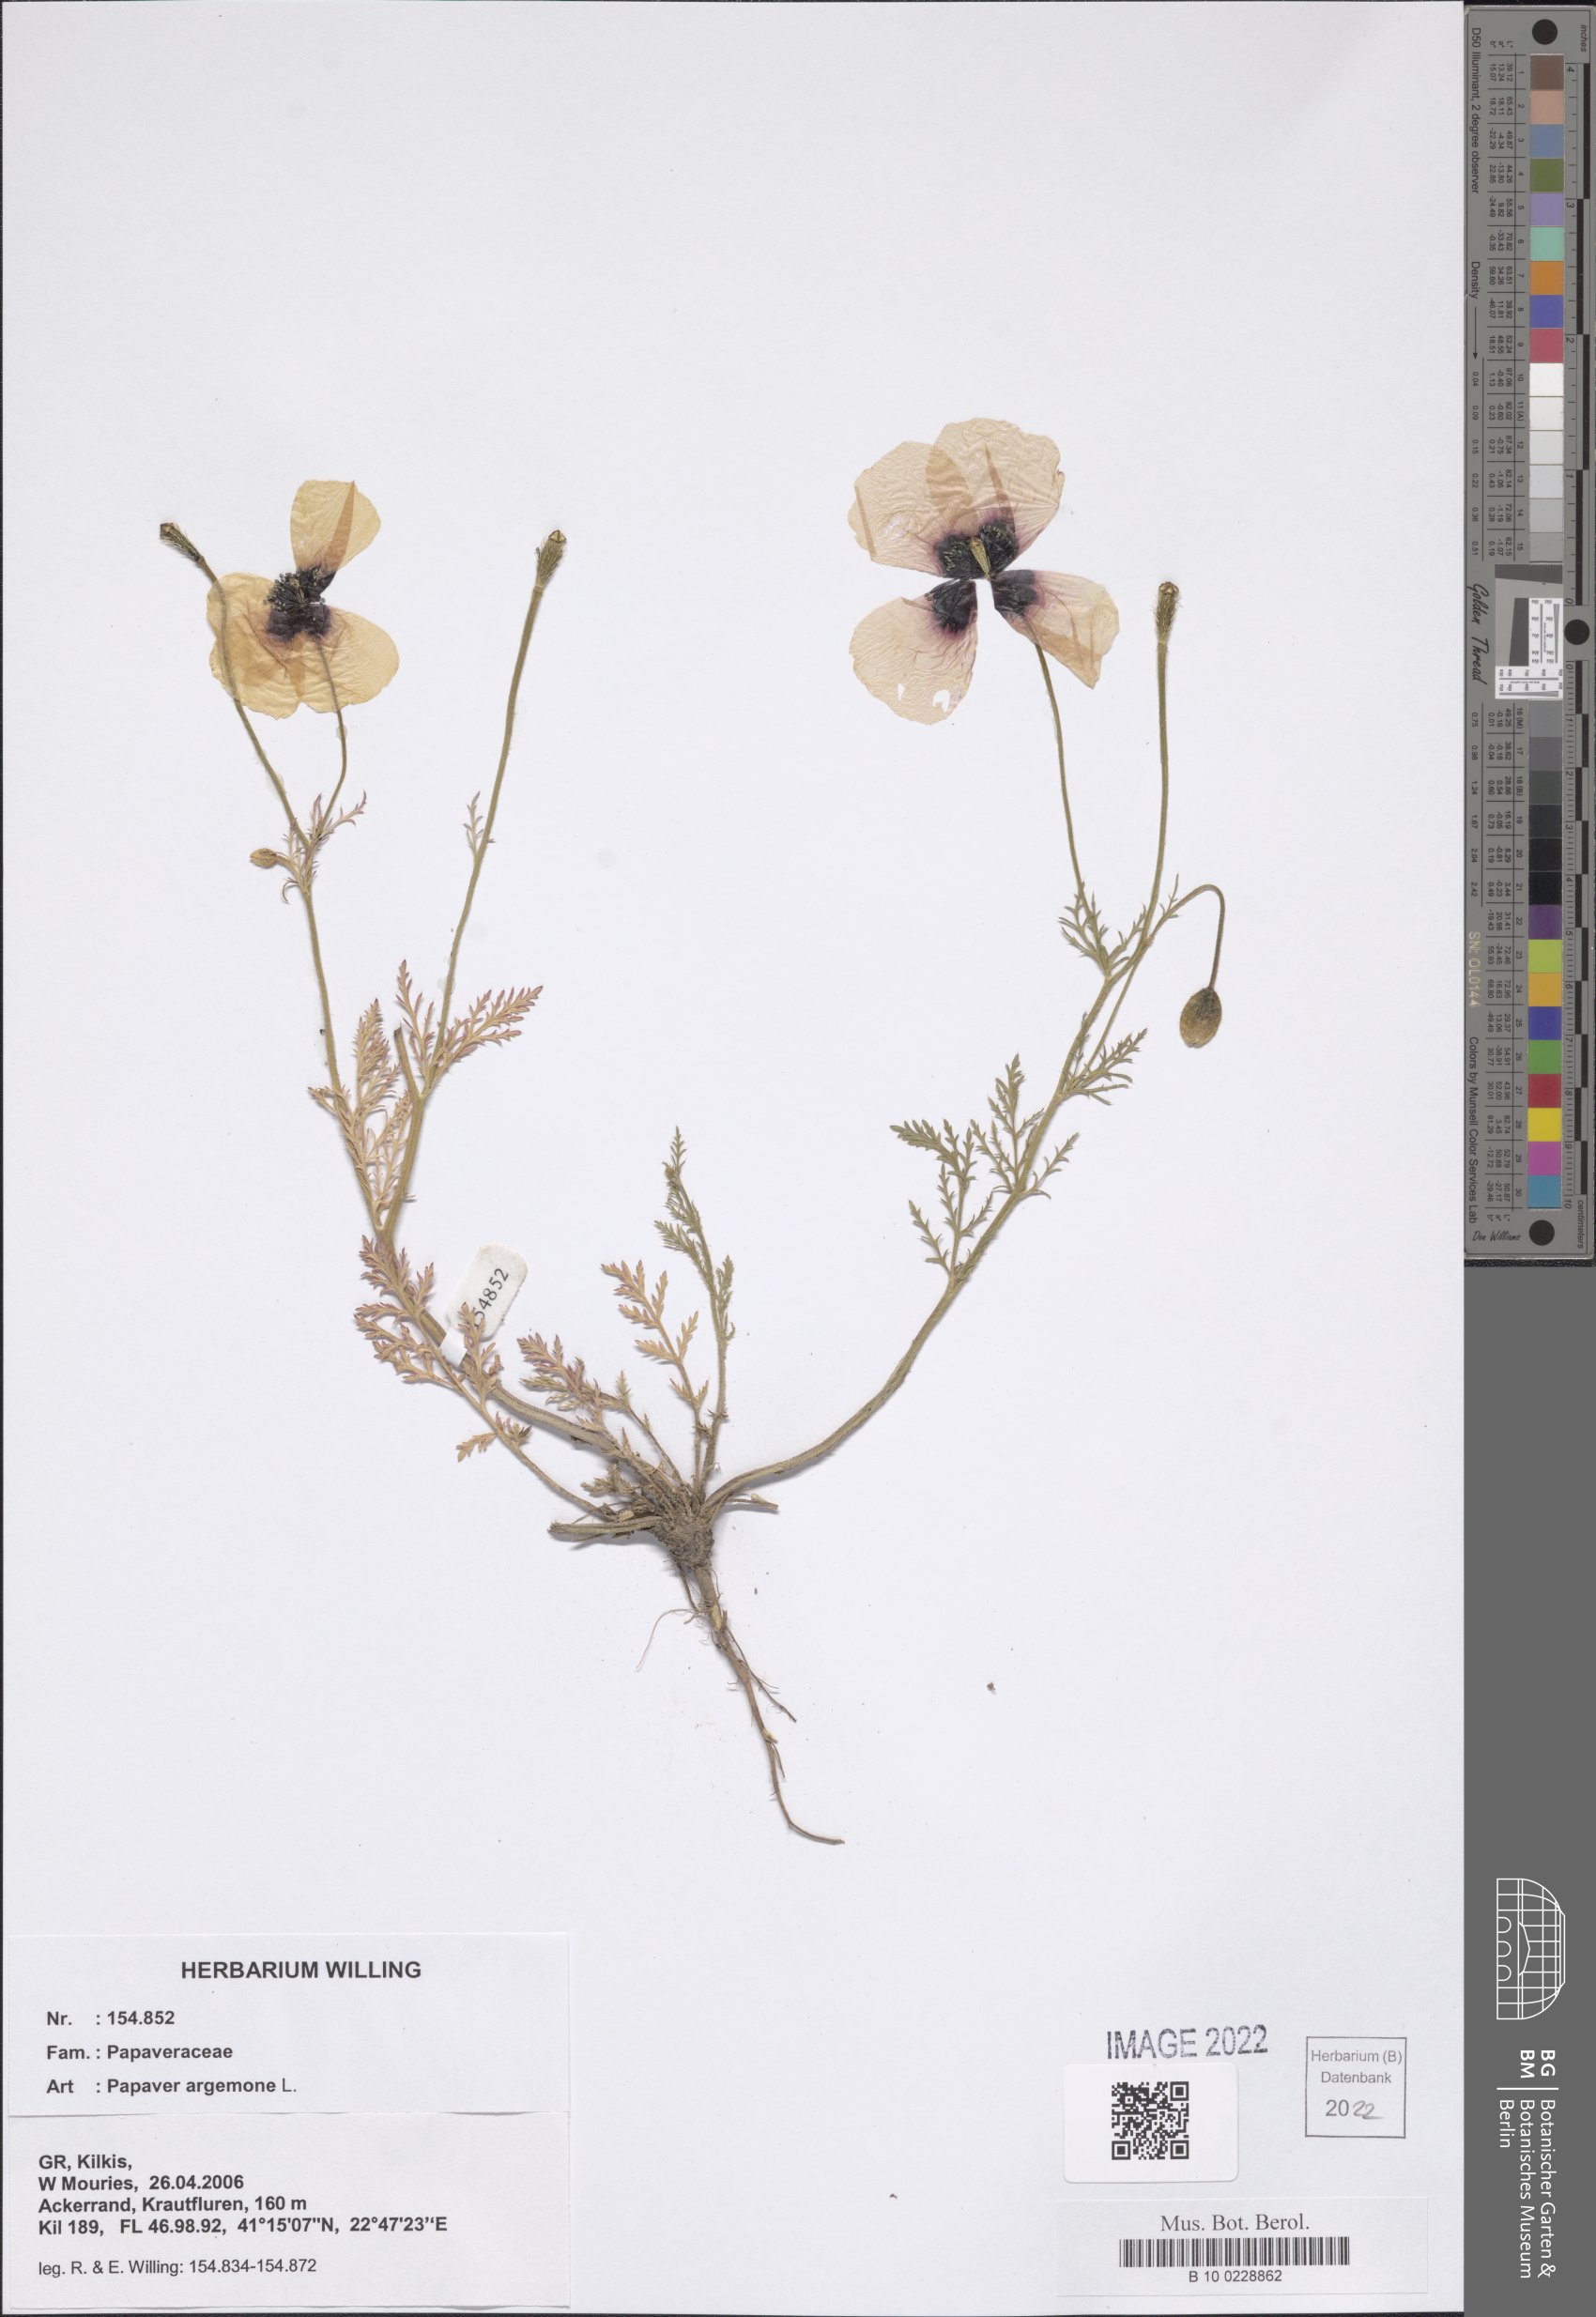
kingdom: Plantae
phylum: Tracheophyta
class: Magnoliopsida
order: Ranunculales
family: Papaveraceae
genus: Roemeria
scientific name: Roemeria argemone
